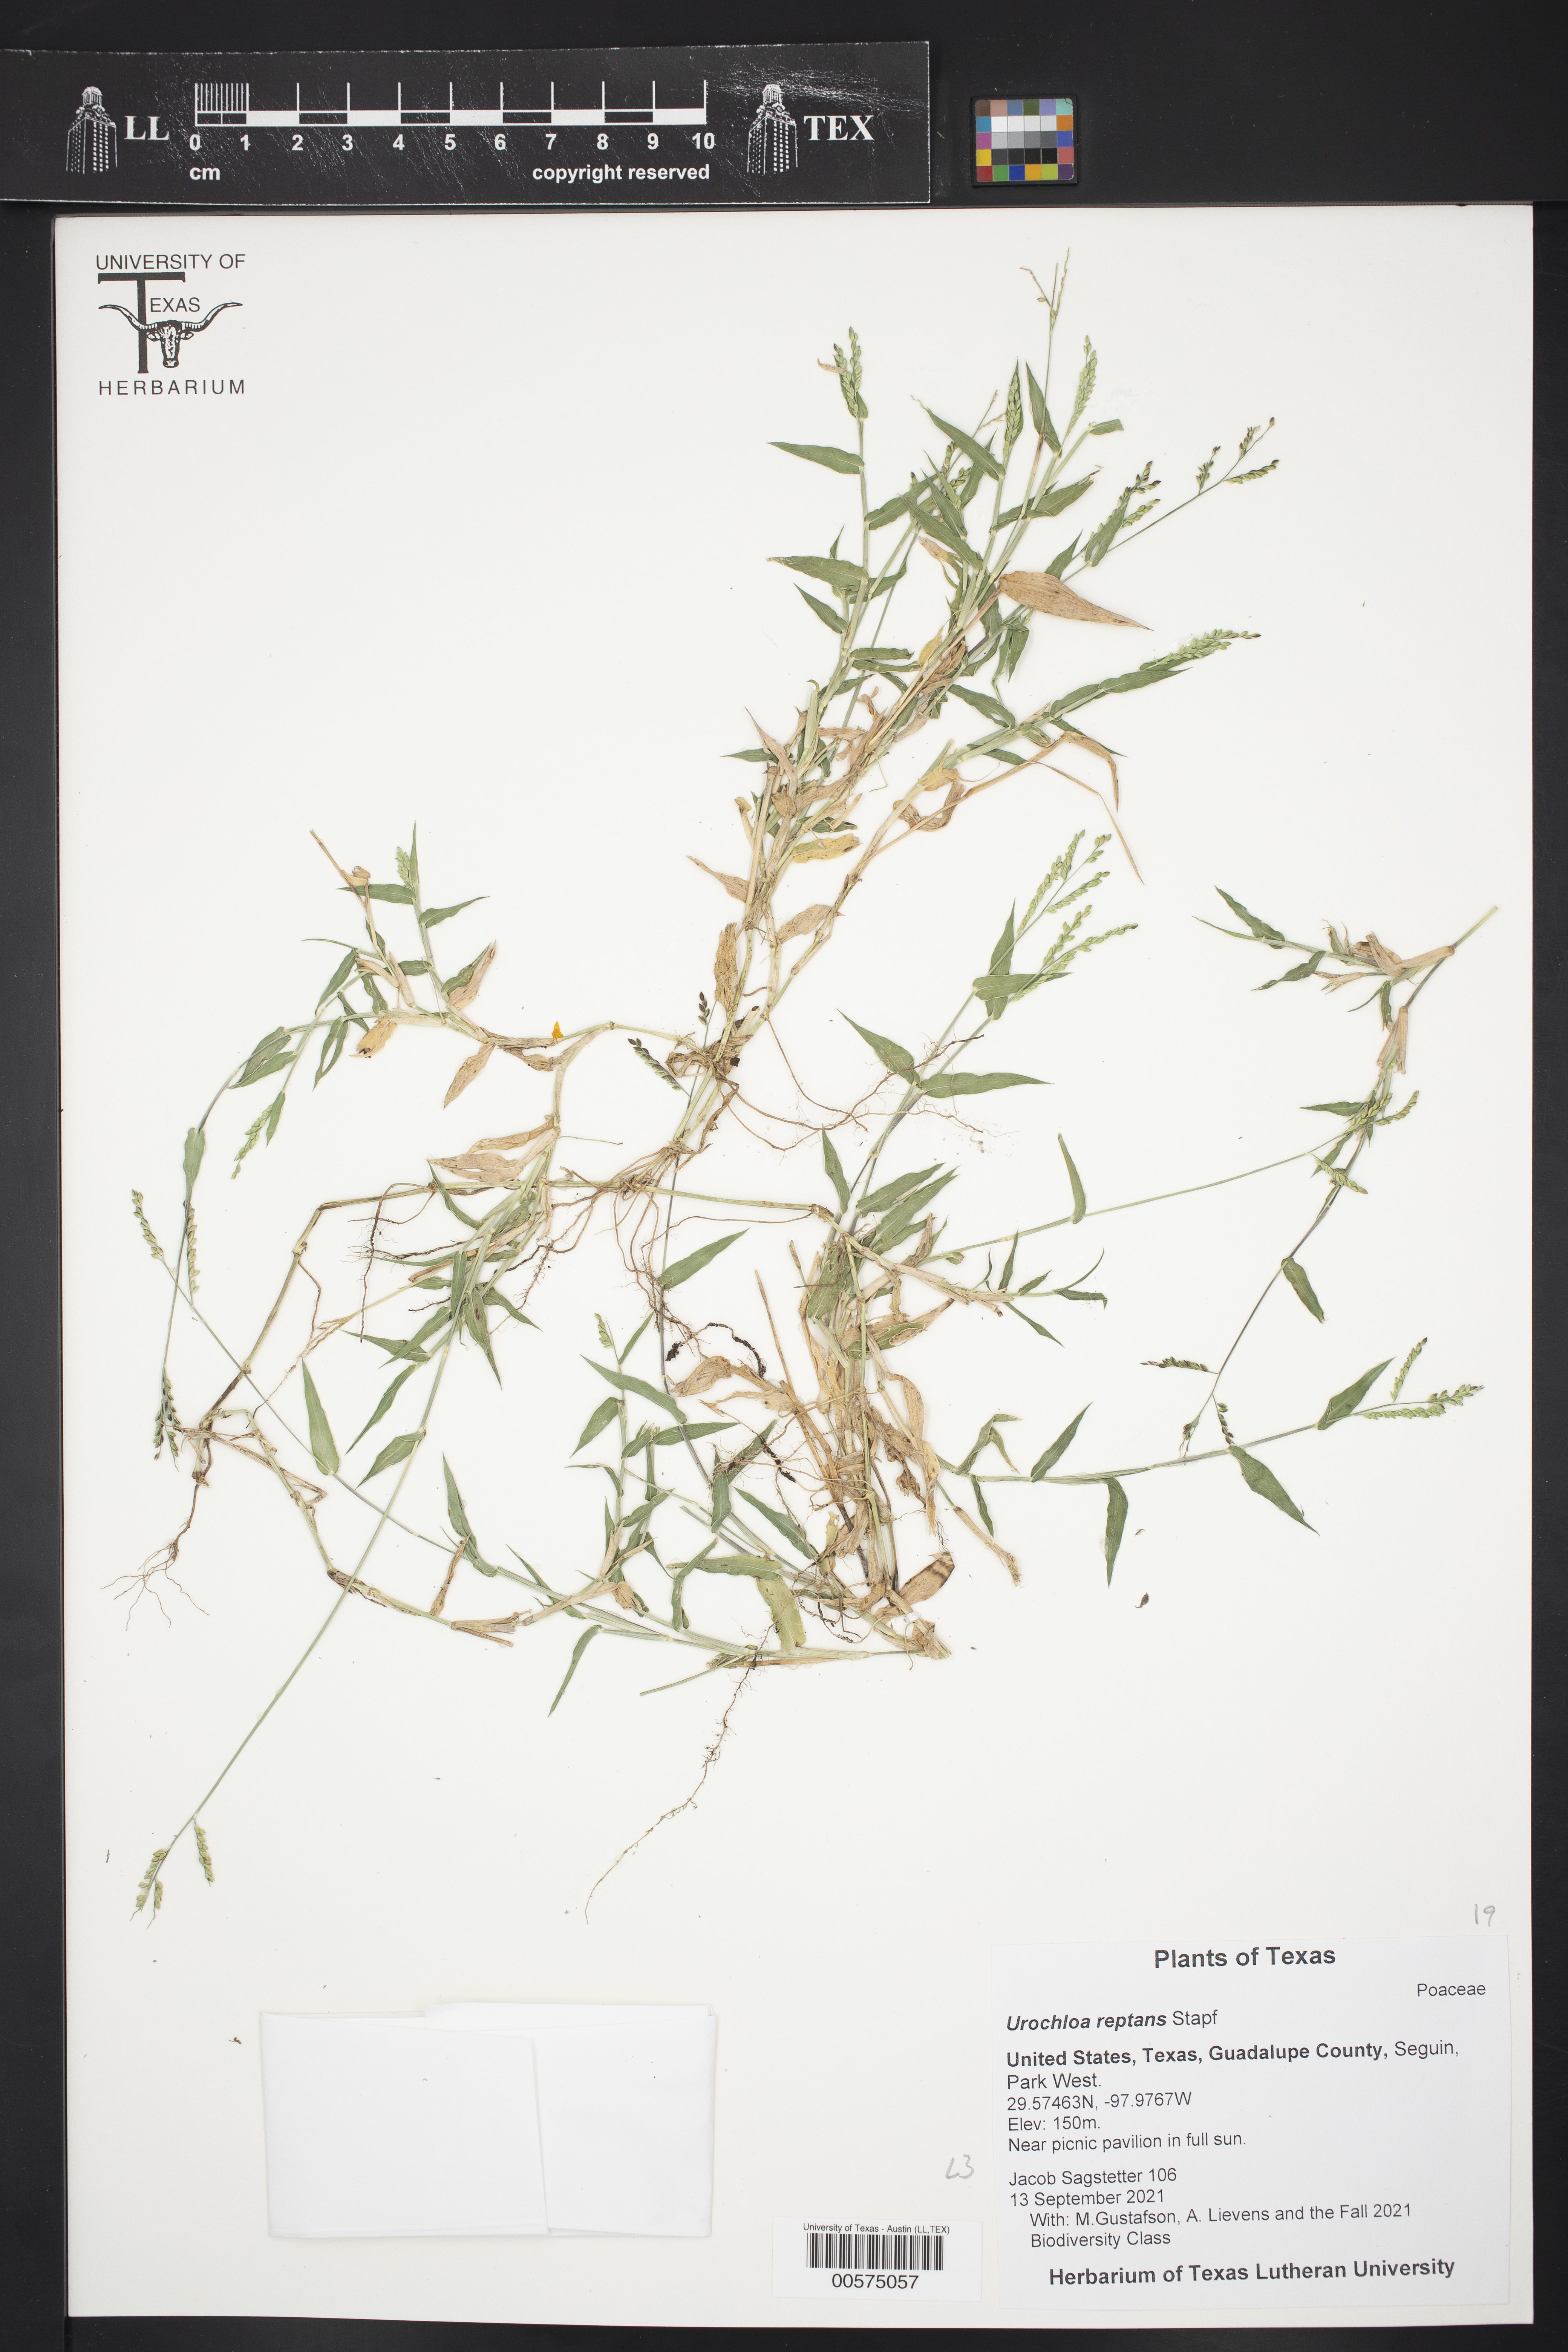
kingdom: Plantae
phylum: Tracheophyta
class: Liliopsida
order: Poales
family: Poaceae
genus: Urochloa
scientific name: Urochloa reptans
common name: Sprawling signalgrass
